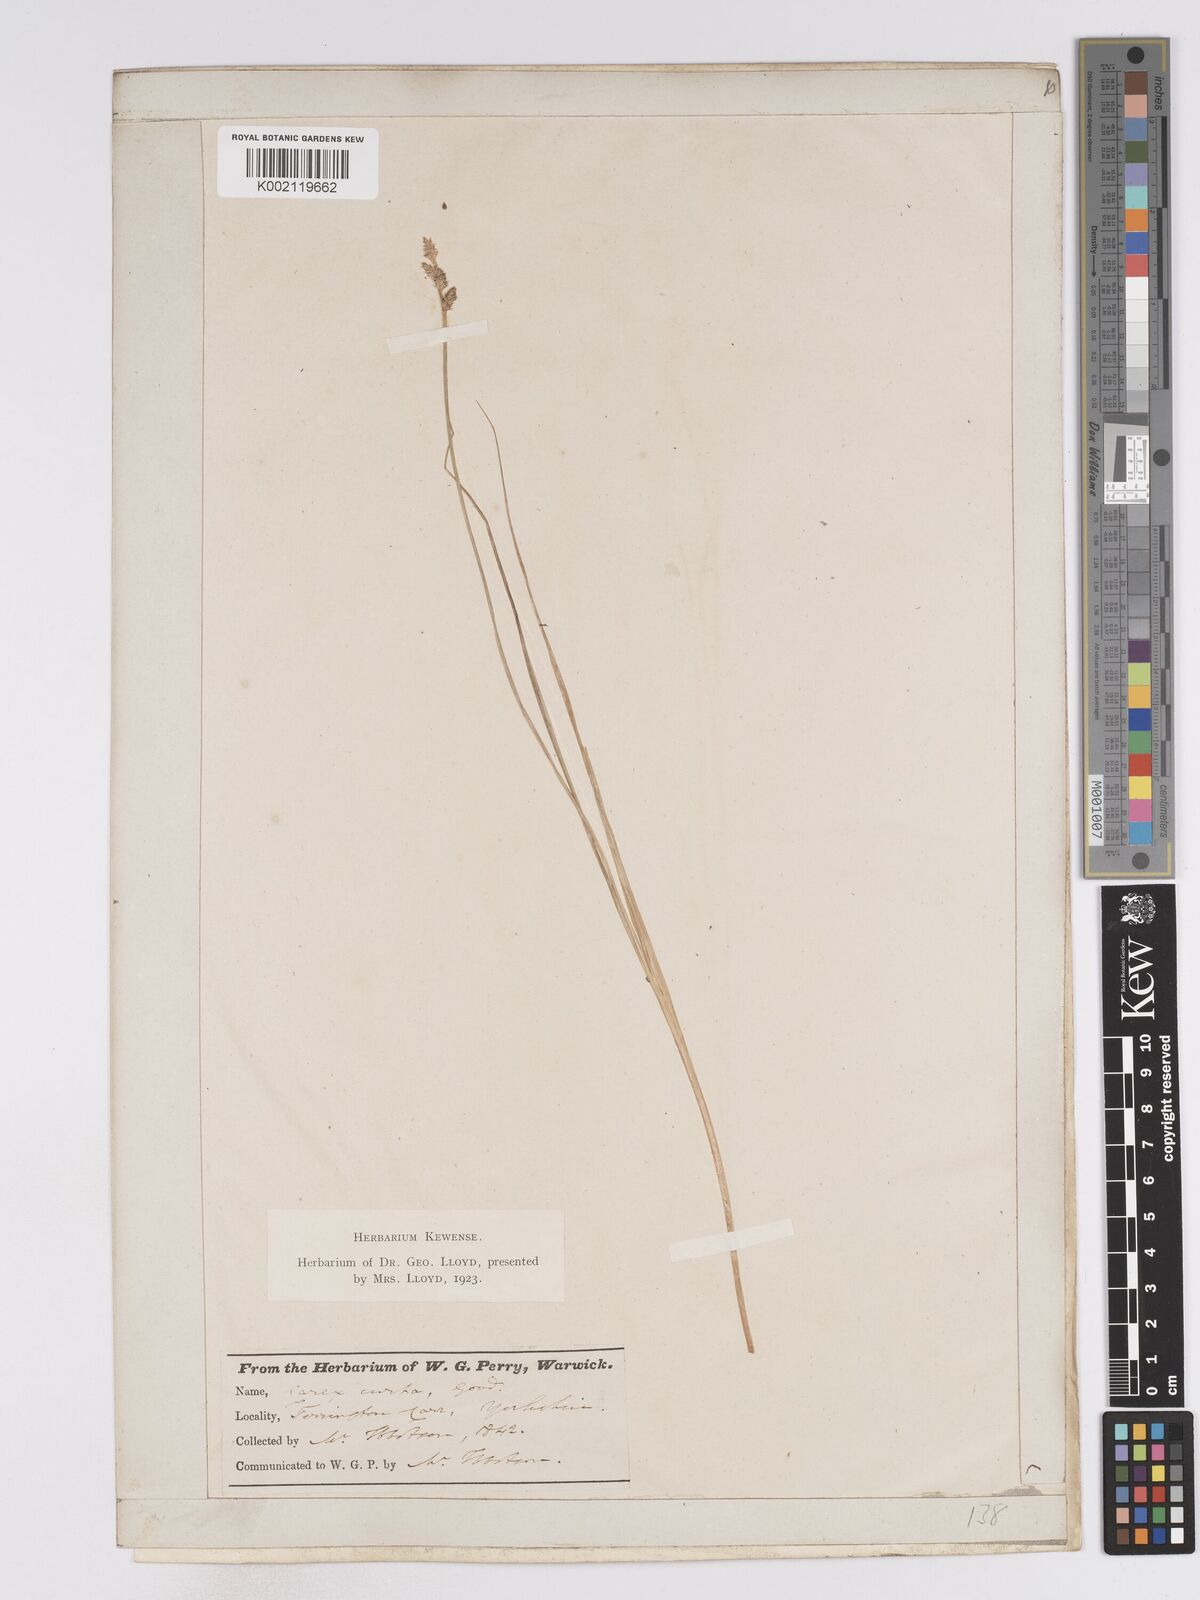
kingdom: Plantae
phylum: Tracheophyta
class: Liliopsida
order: Poales
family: Cyperaceae
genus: Carex
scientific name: Carex curta
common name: White sedge
